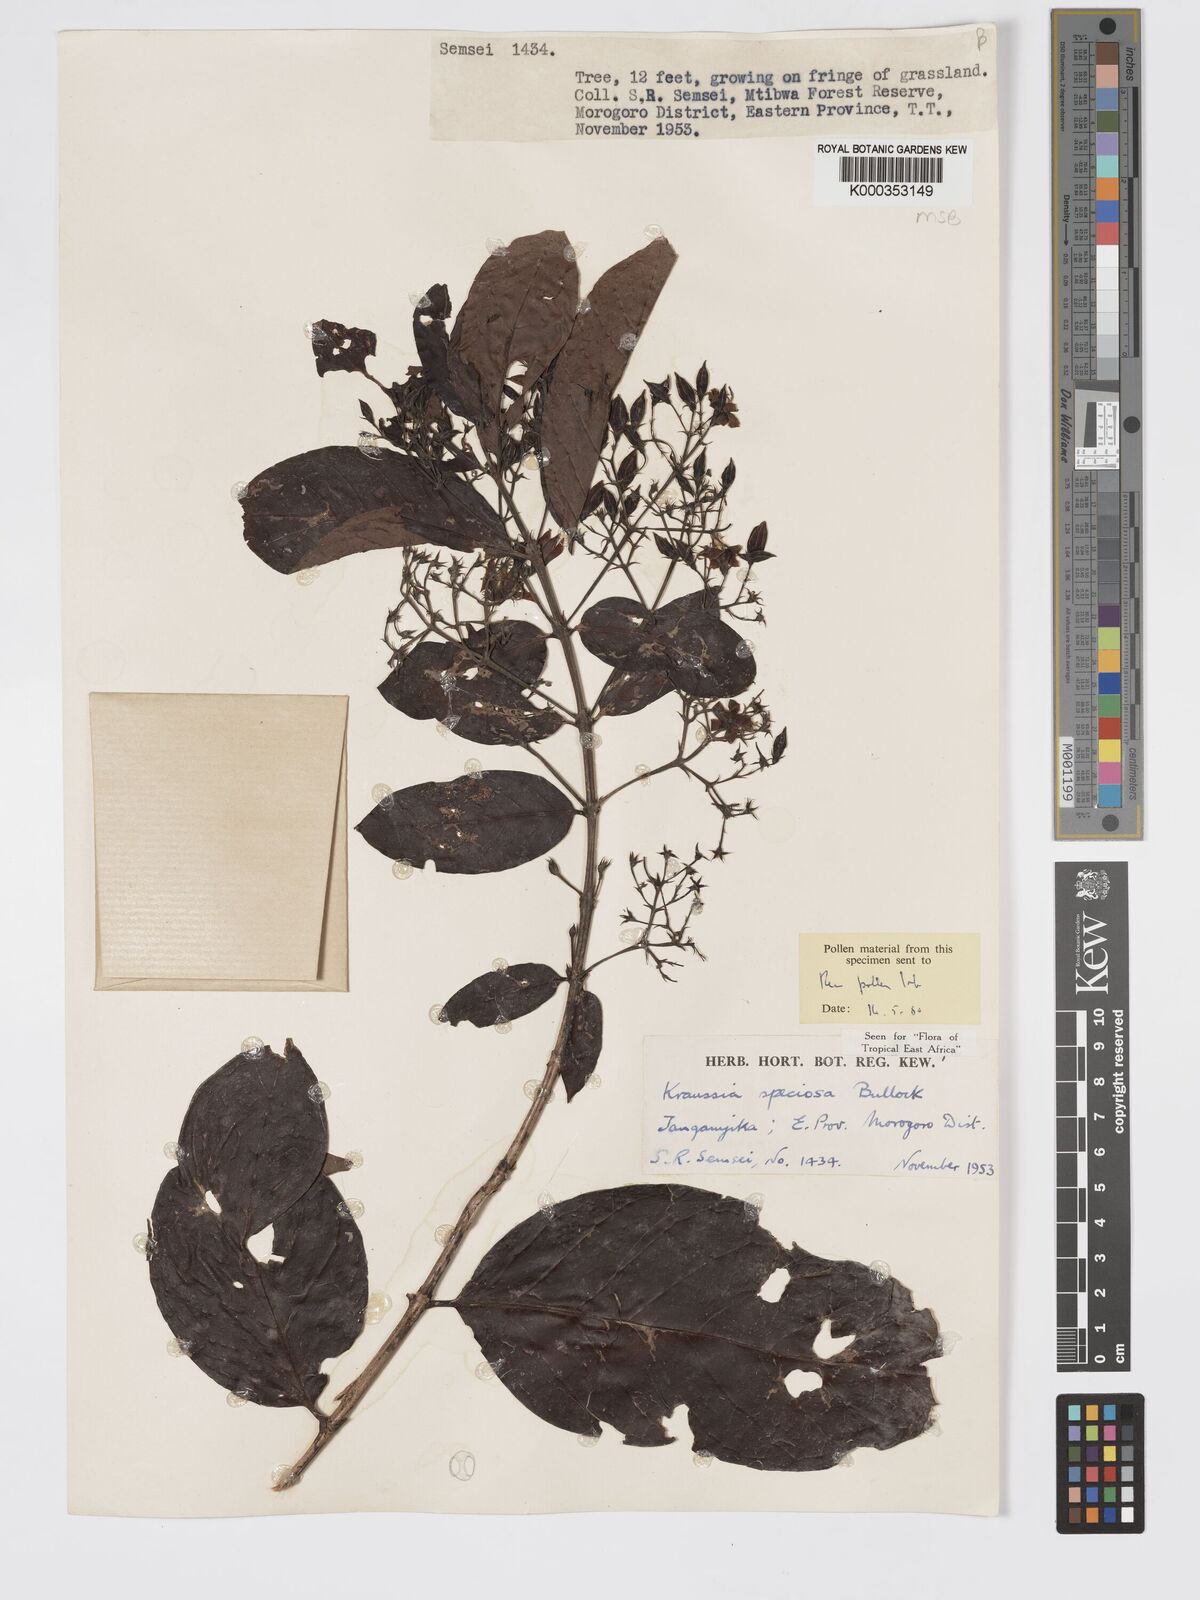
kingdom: Plantae
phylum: Tracheophyta
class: Magnoliopsida
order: Gentianales
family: Rubiaceae
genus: Kraussia
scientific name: Kraussia speciosa
